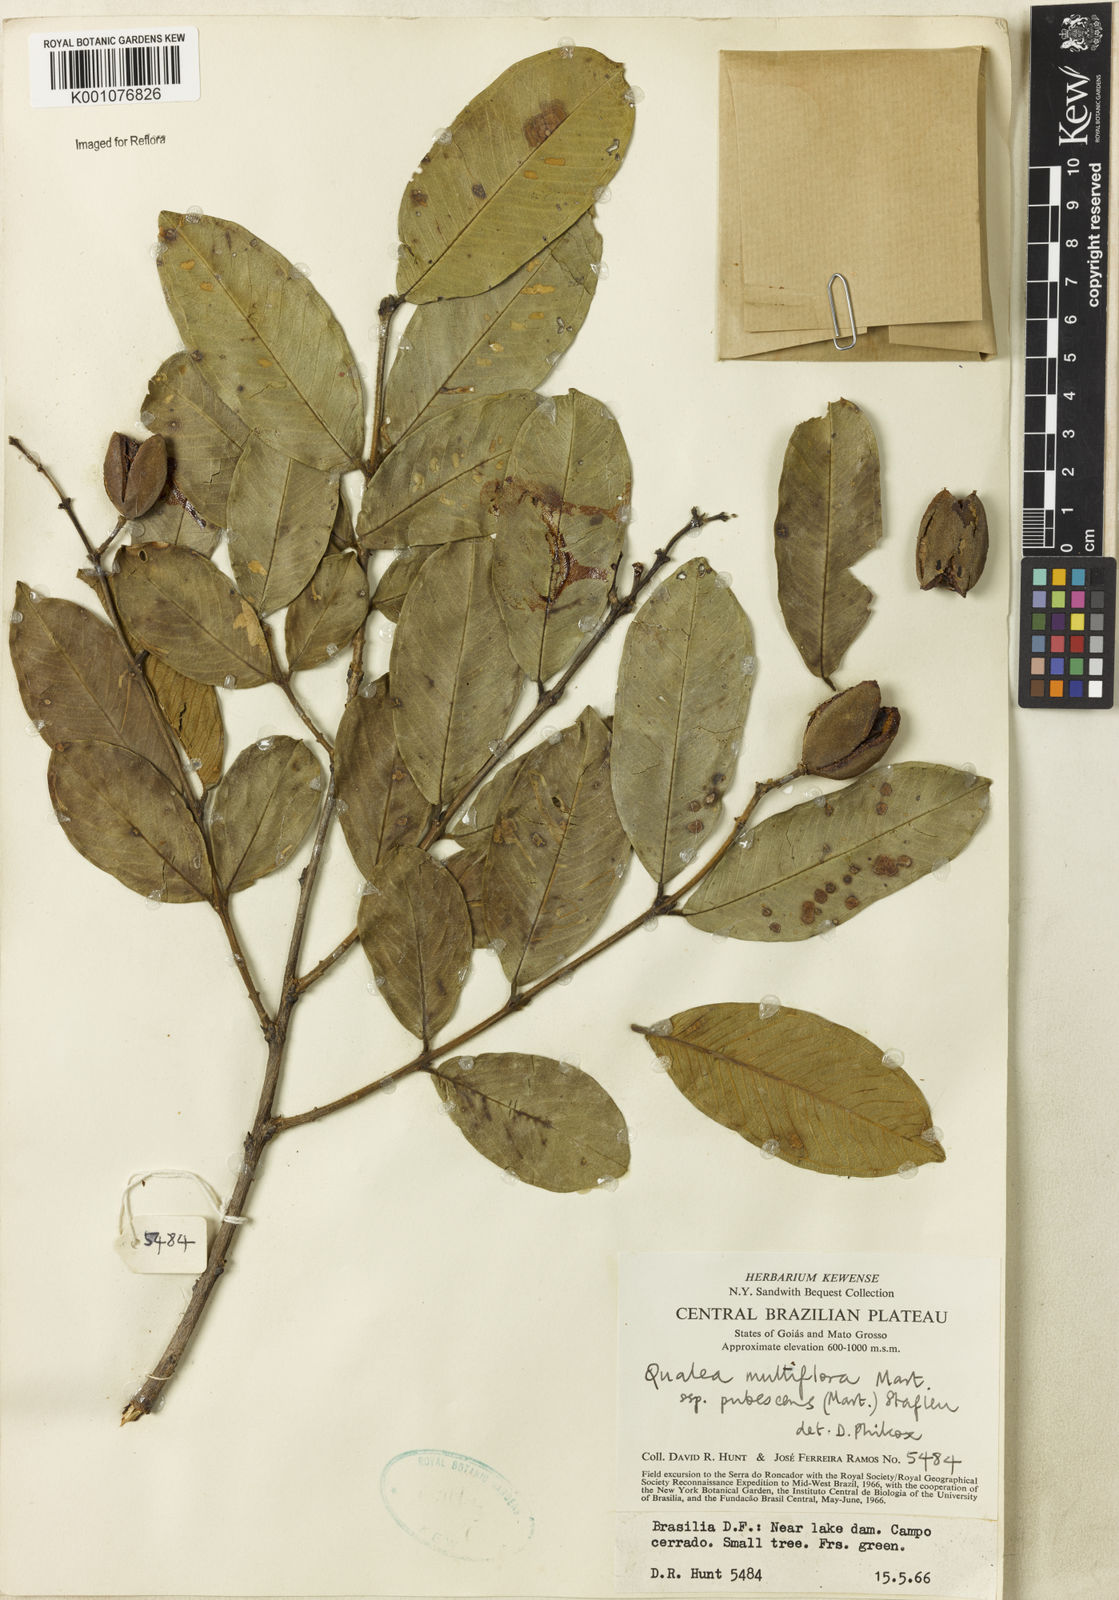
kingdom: Plantae
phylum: Tracheophyta
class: Magnoliopsida
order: Myrtales
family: Vochysiaceae
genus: Qualea
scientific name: Qualea multiflora
